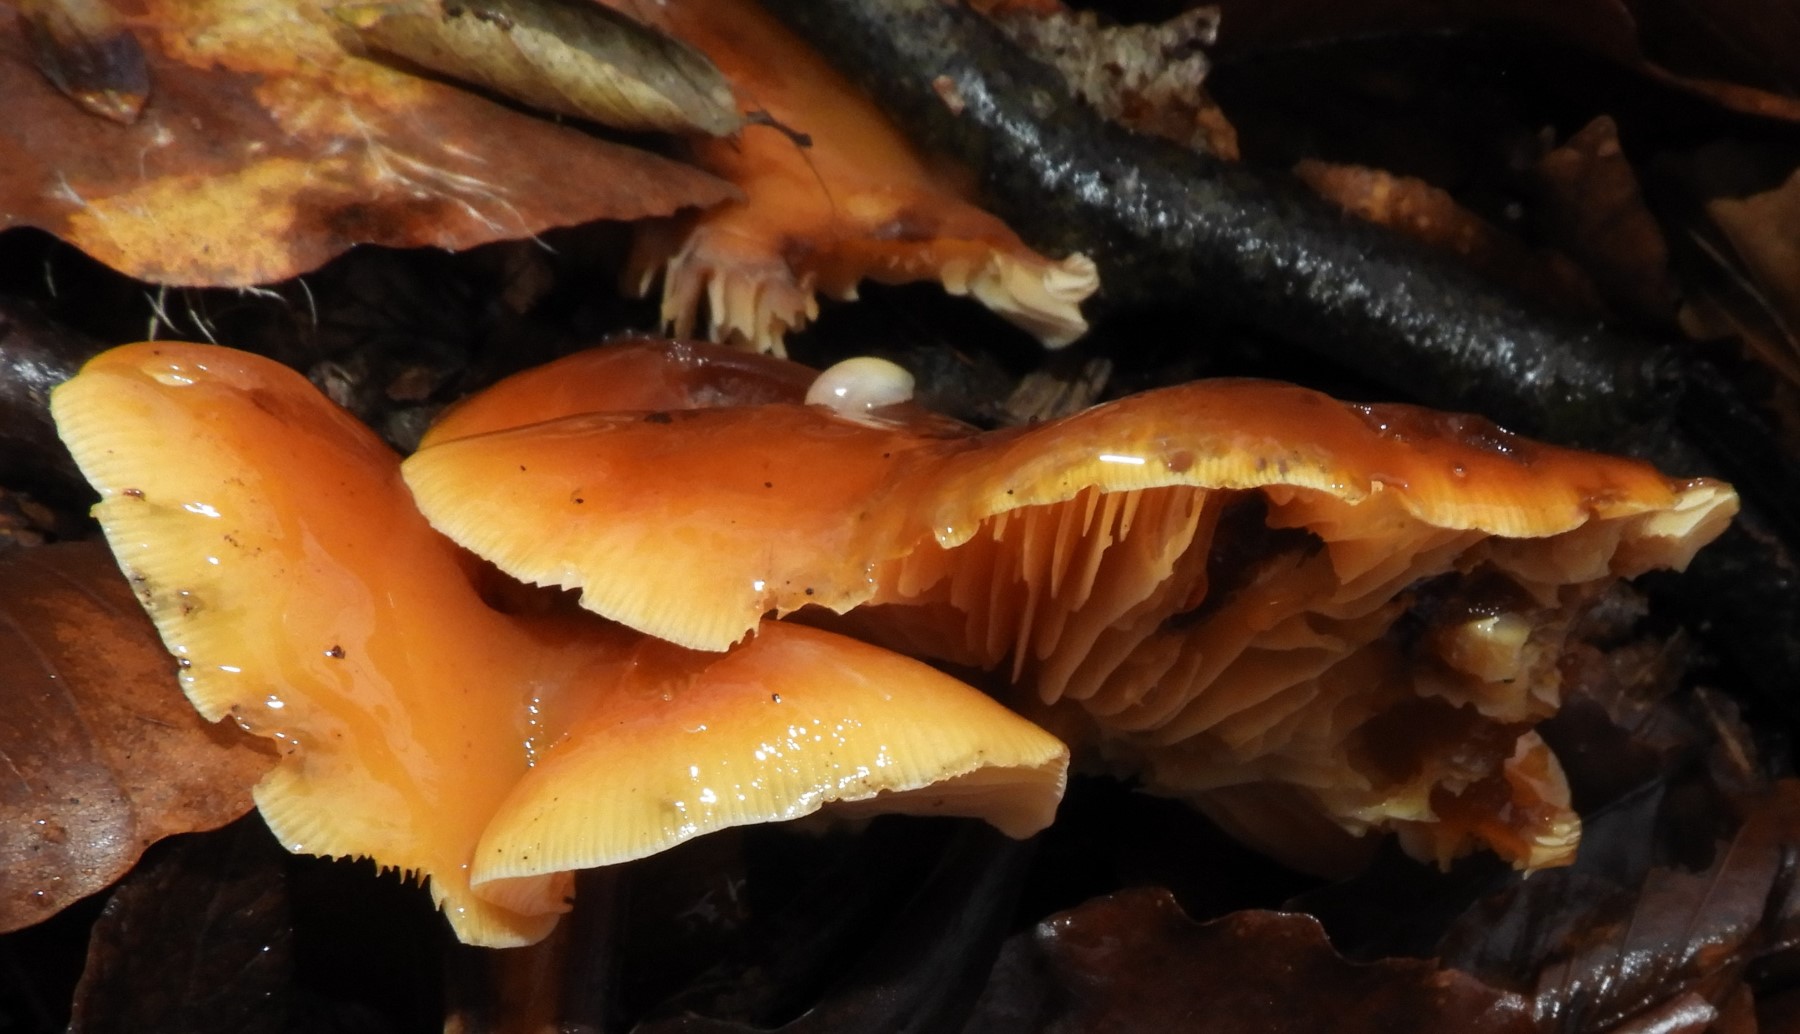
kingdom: Fungi
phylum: Basidiomycota
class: Agaricomycetes
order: Agaricales
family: Physalacriaceae
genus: Flammulina
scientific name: Flammulina velutipes
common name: gul fløjlsfod
